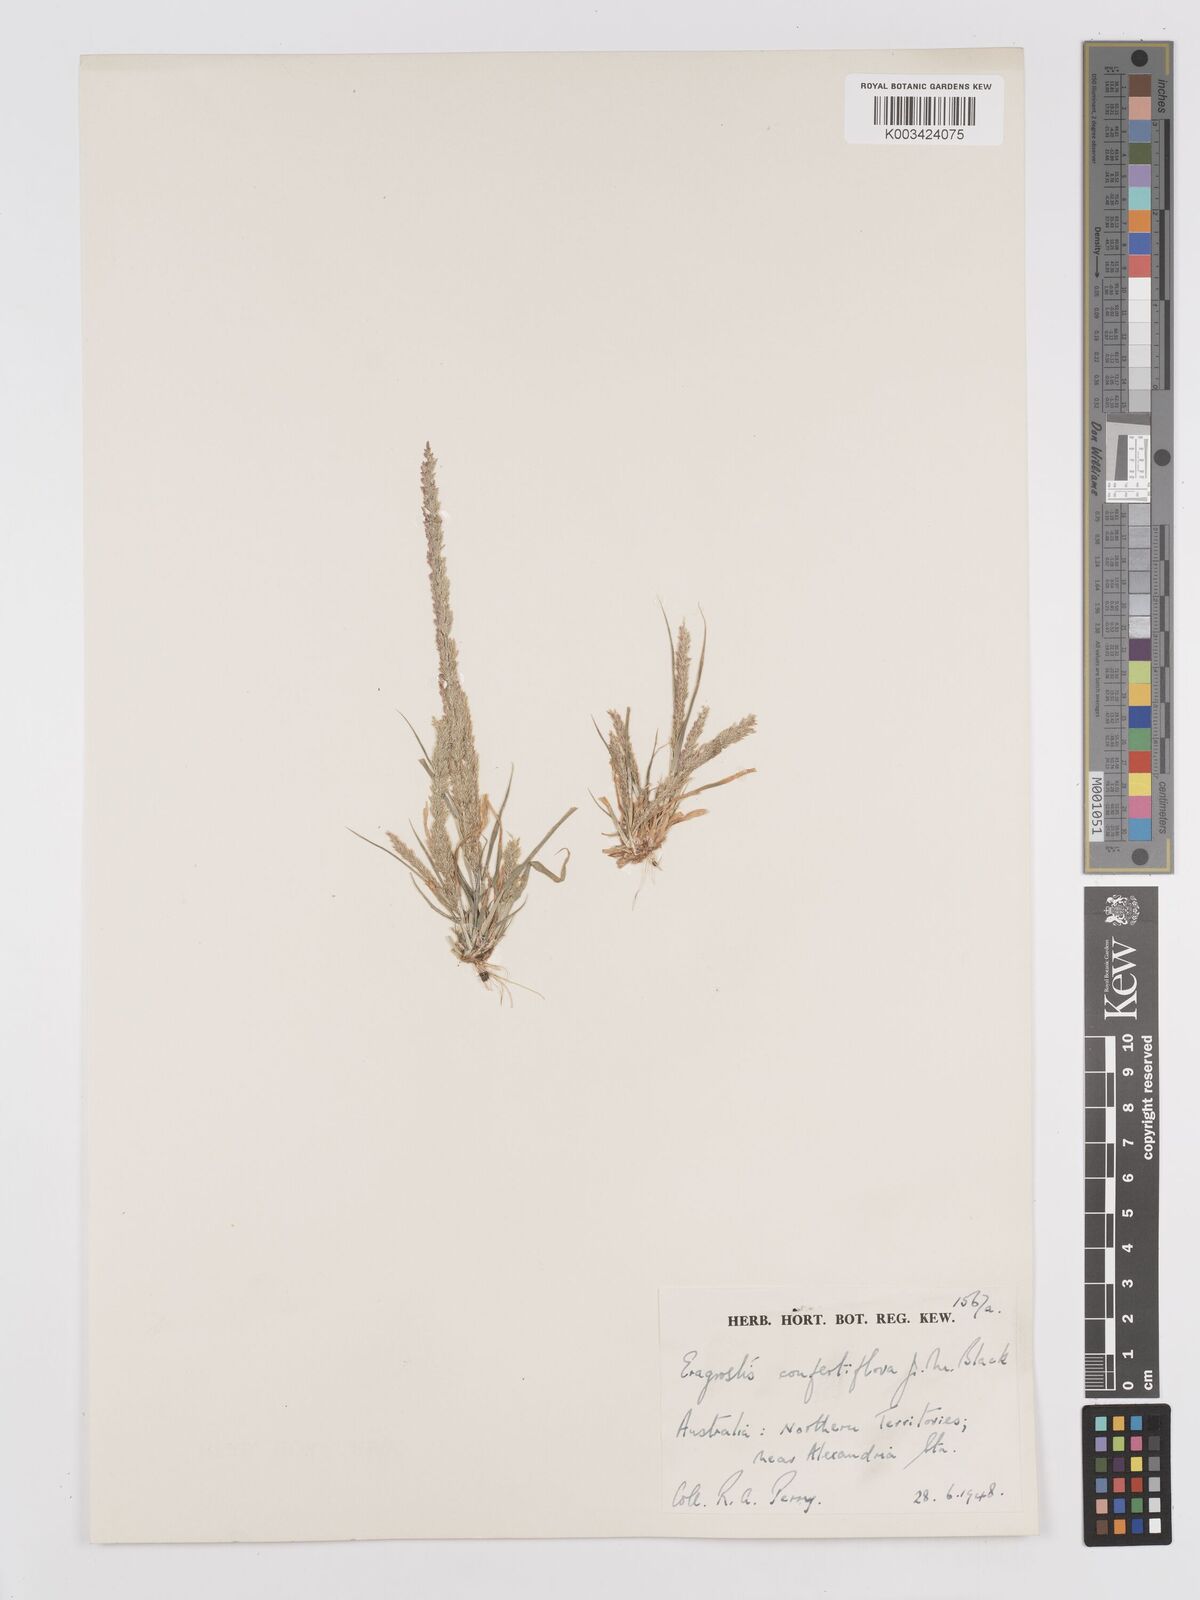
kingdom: Plantae
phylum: Tracheophyta
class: Liliopsida
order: Poales
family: Poaceae
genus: Eragrostis
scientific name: Eragrostis confertiflora
